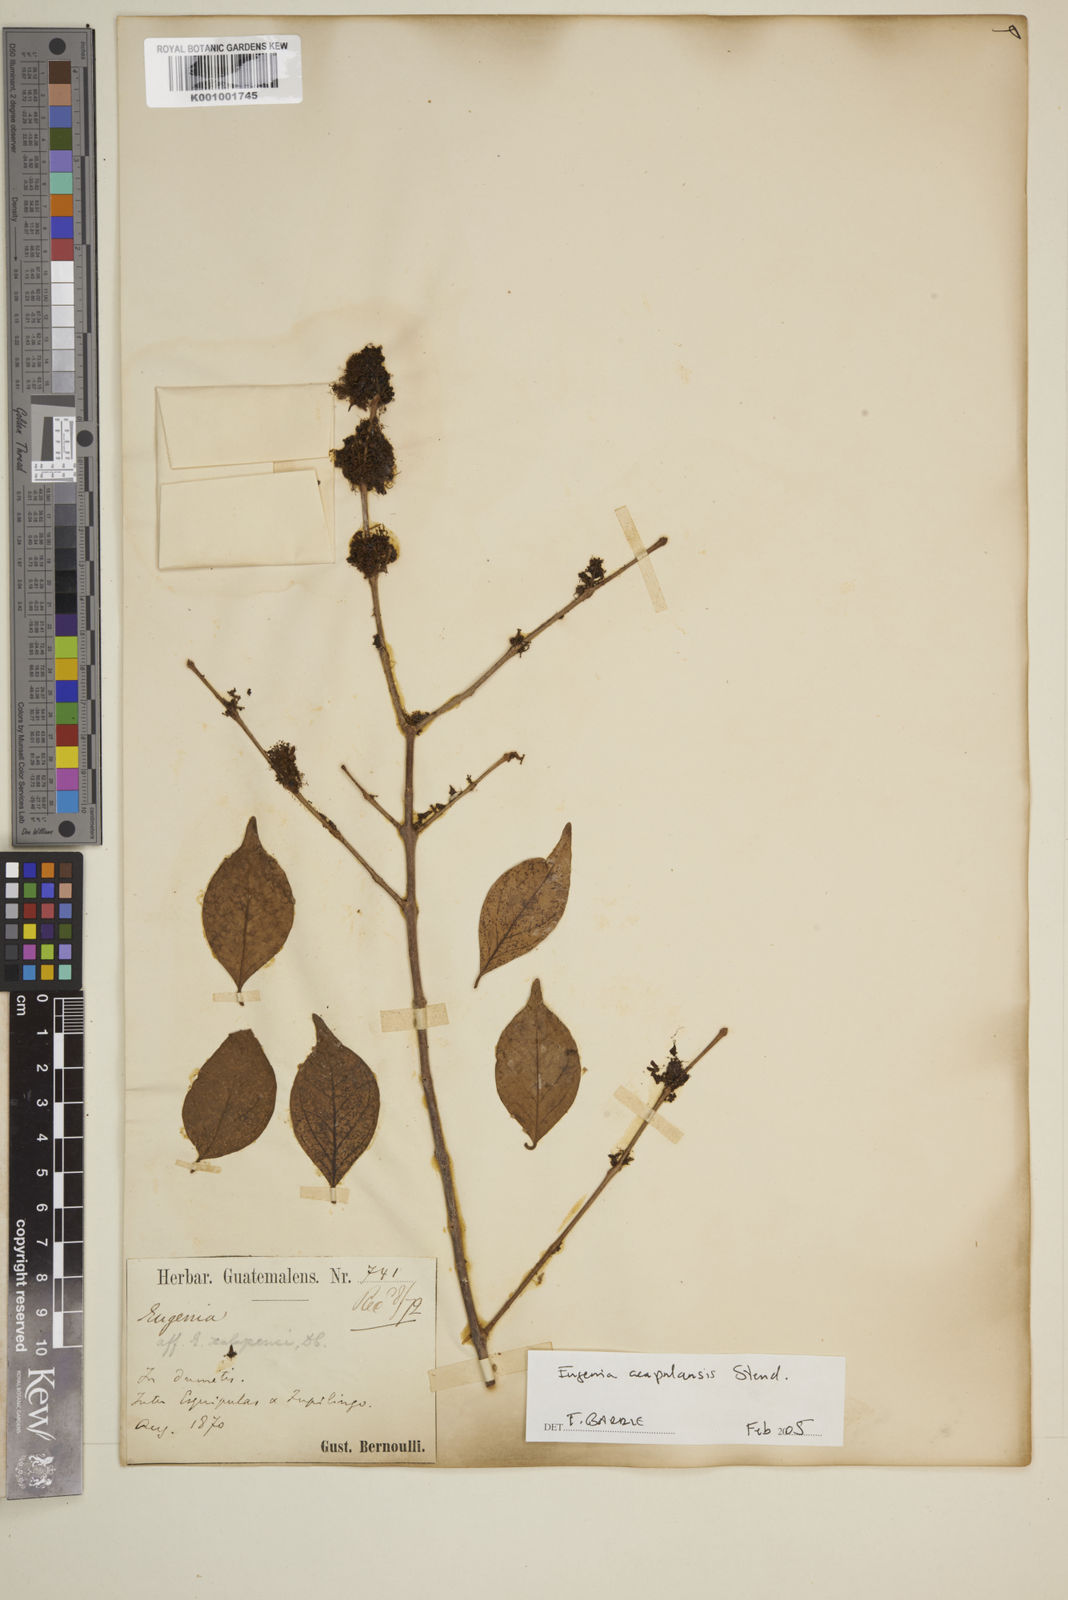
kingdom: Plantae
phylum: Tracheophyta
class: Magnoliopsida
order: Myrtales
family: Myrtaceae
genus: Eugenia
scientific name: Eugenia acapulcensis
